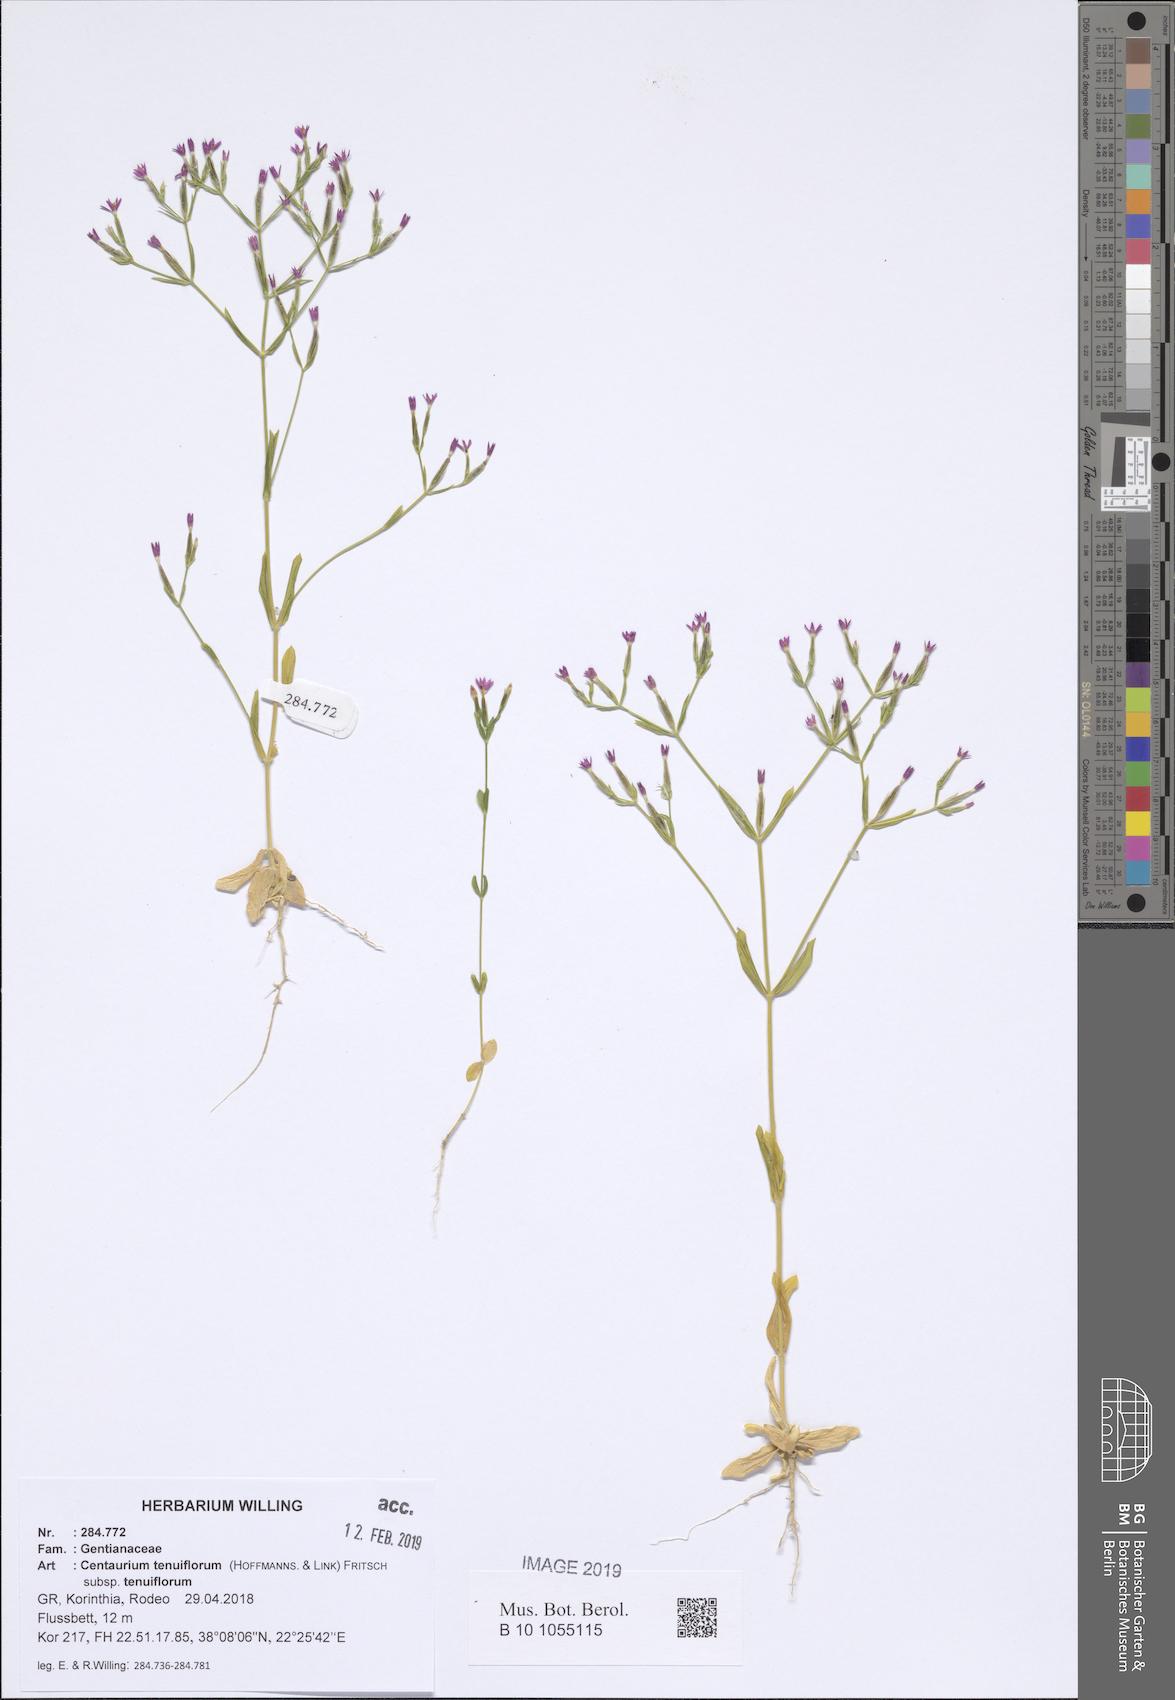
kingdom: Plantae
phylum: Tracheophyta
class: Magnoliopsida
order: Gentianales
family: Gentianaceae
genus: Centaurium
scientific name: Centaurium tenuiflorum
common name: Slender centaury
